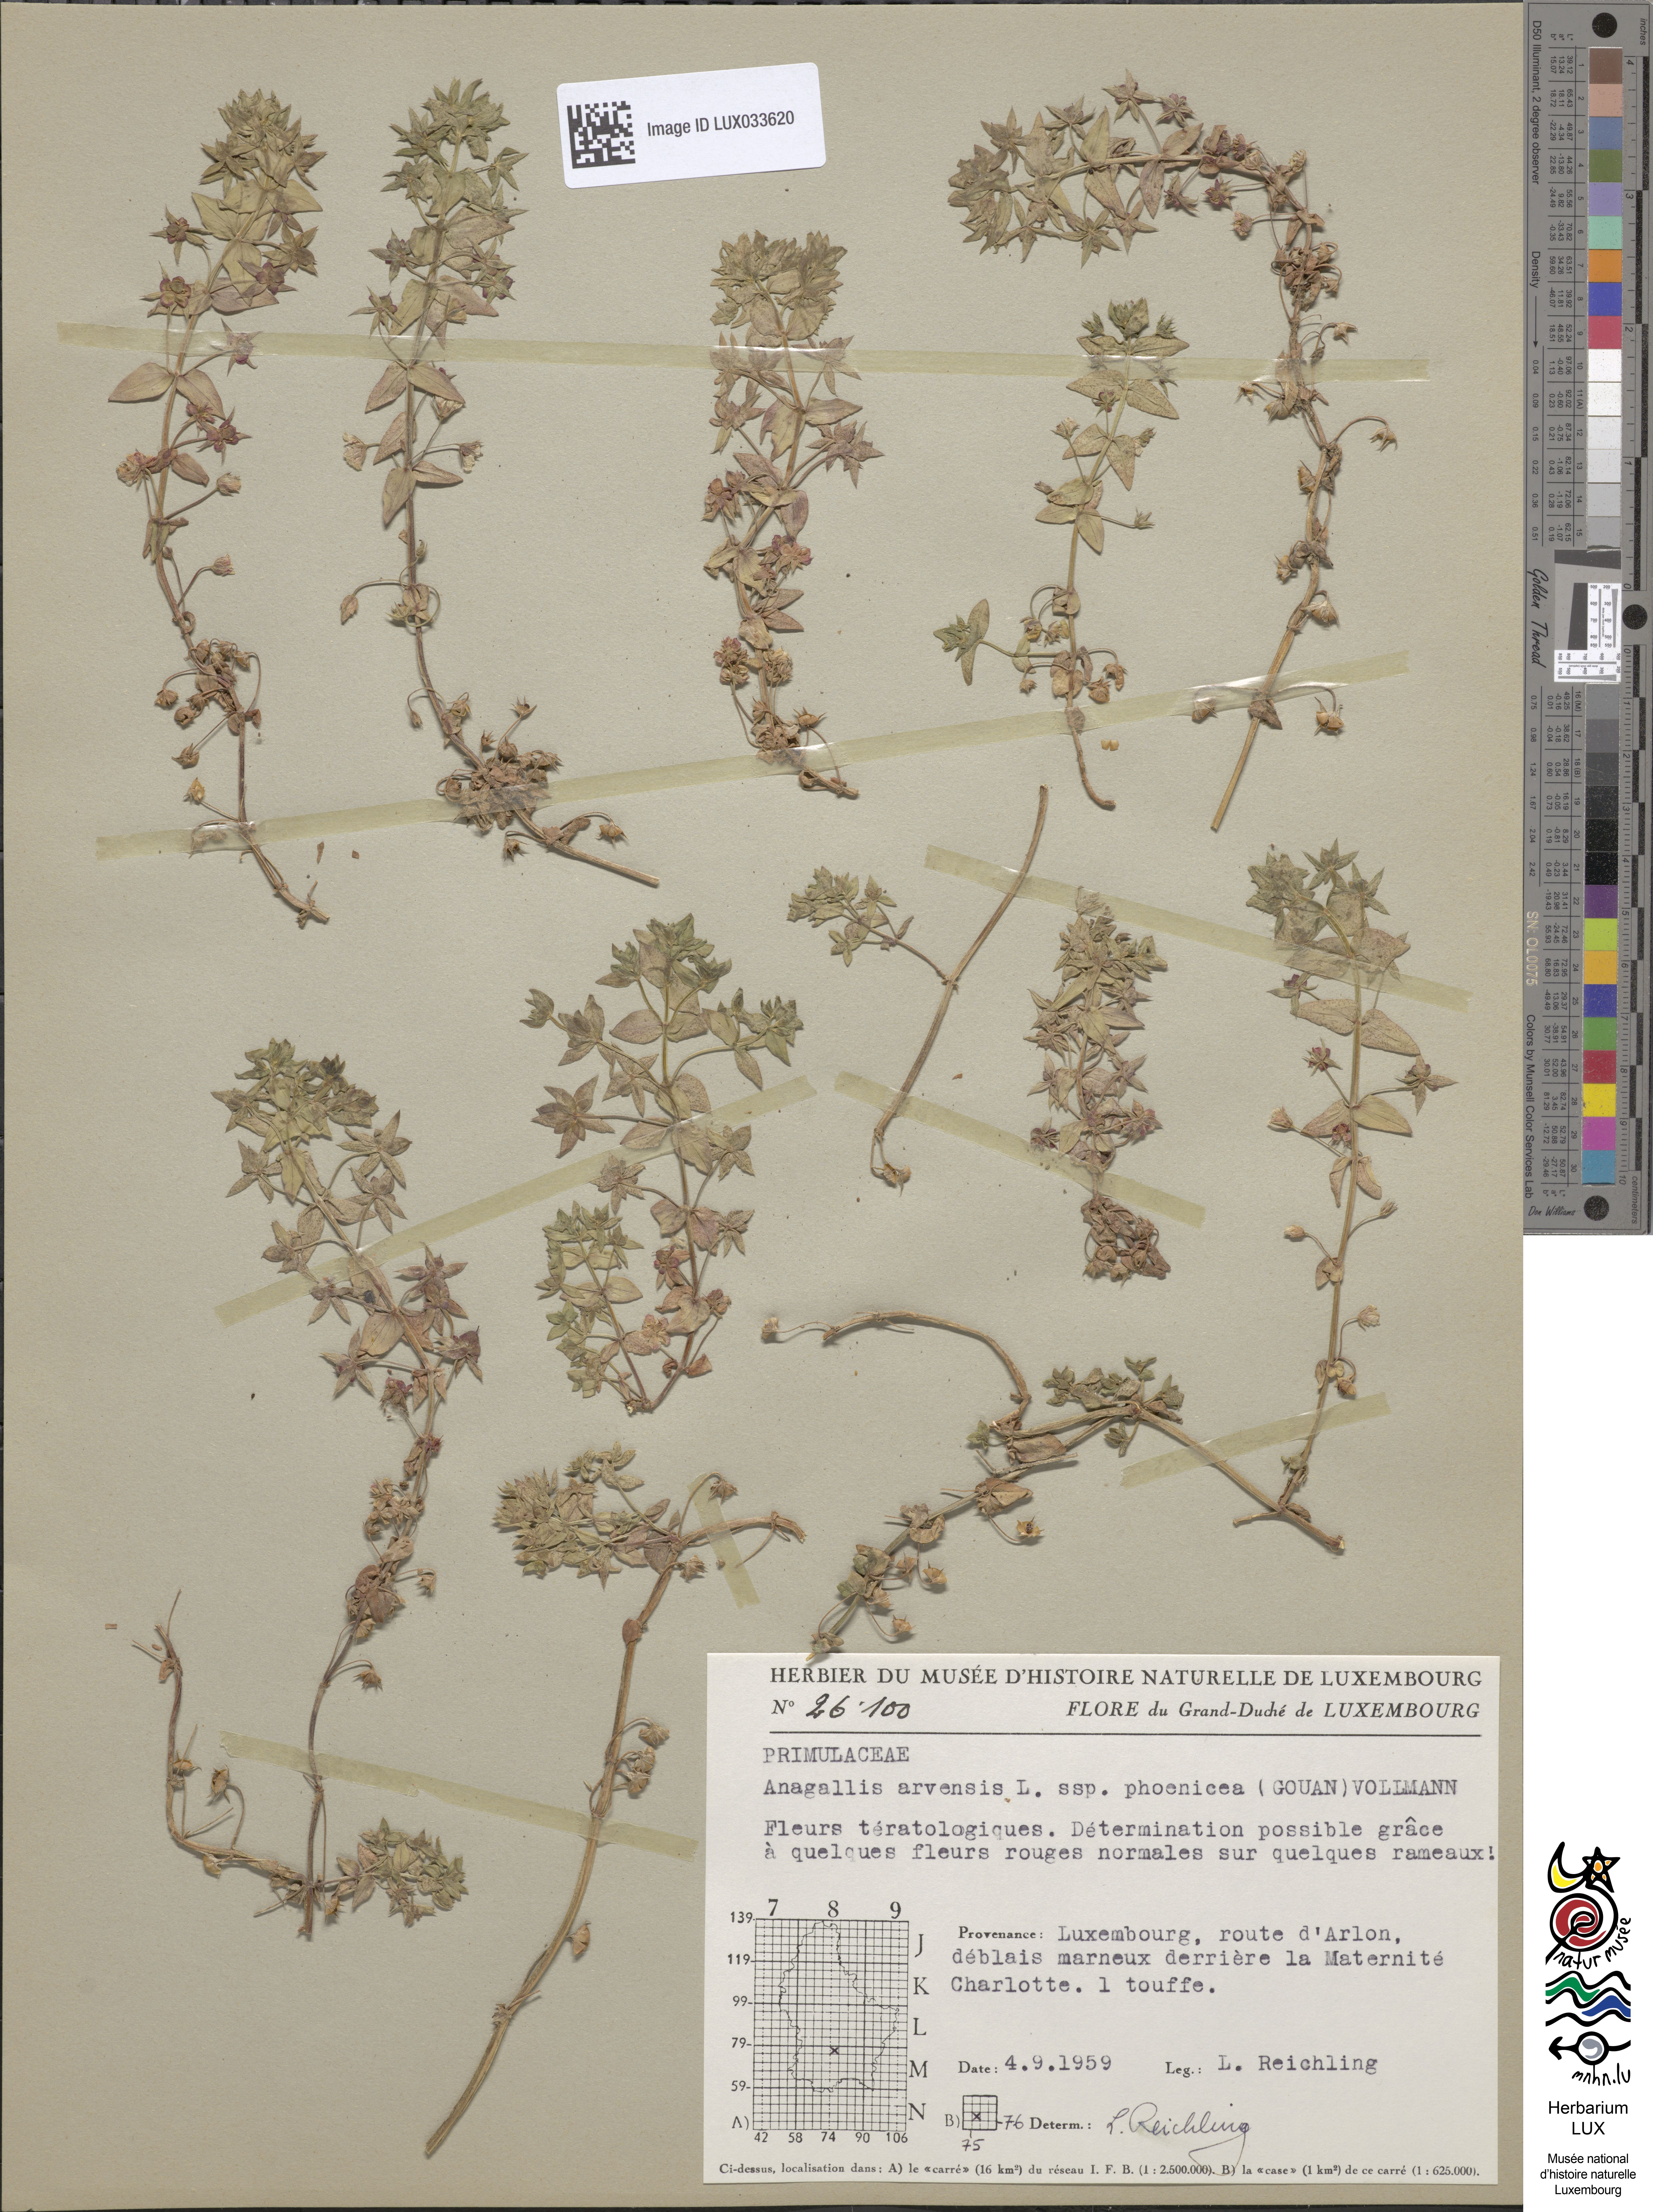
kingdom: Plantae
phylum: Tracheophyta
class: Magnoliopsida
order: Ericales
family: Primulaceae
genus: Lysimachia
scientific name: Lysimachia arvensis
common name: Scarlet pimpernel
